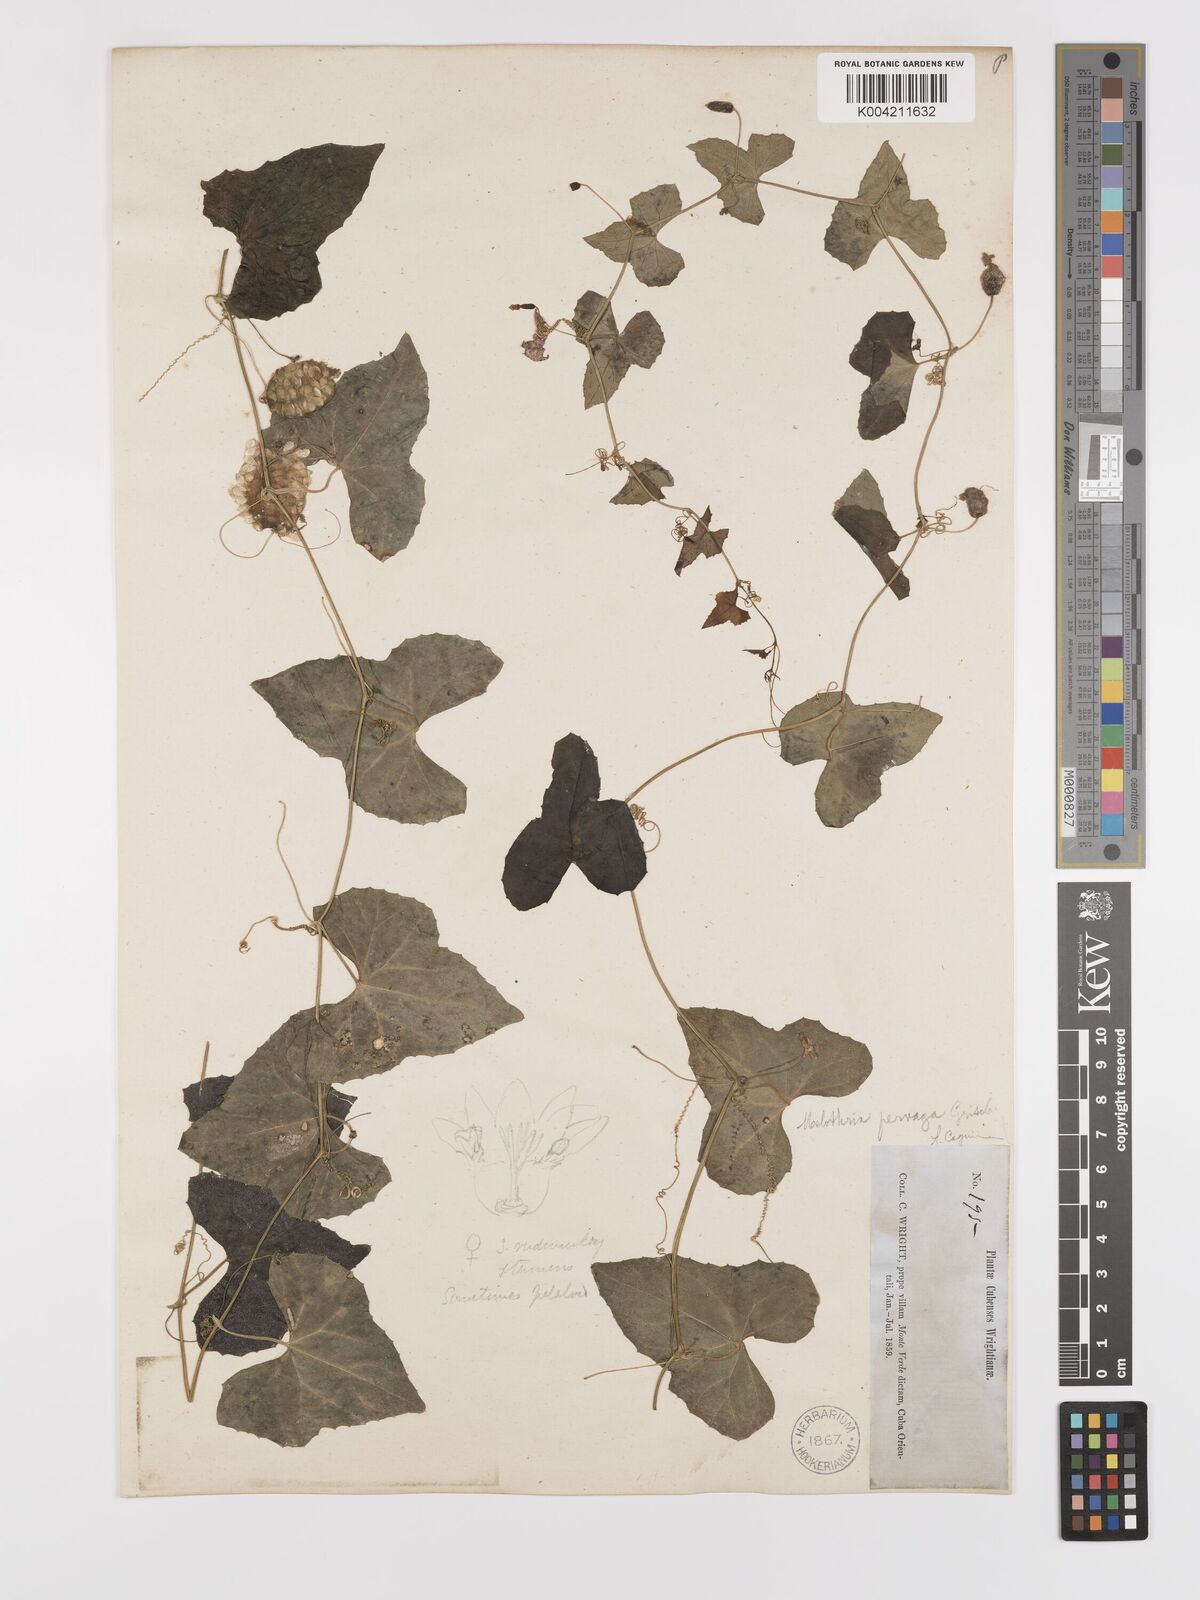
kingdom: Plantae
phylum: Tracheophyta
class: Magnoliopsida
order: Cucurbitales
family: Cucurbitaceae
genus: Melothria
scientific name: Melothria
